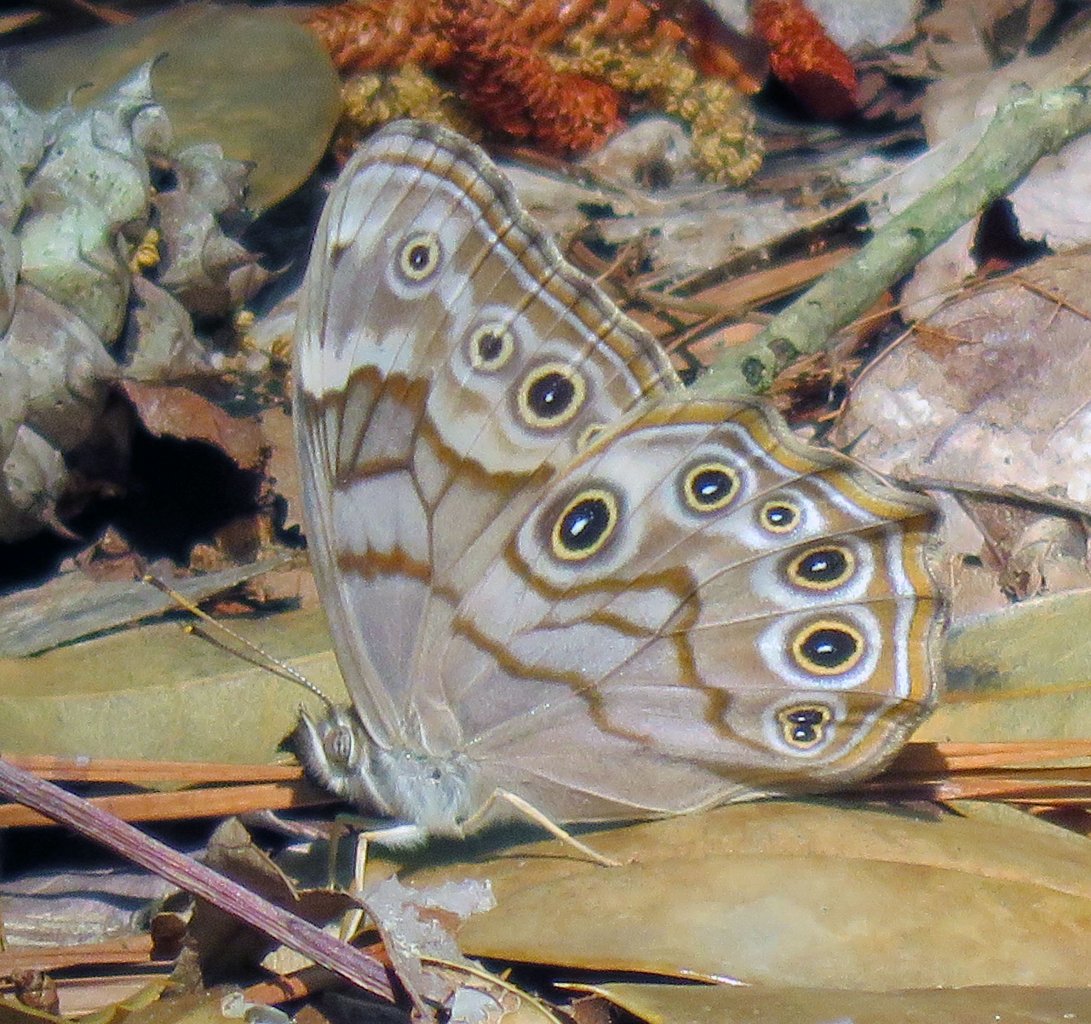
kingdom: Animalia
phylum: Arthropoda
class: Insecta
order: Lepidoptera
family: Nymphalidae
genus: Lethe
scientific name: Lethe creola
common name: Creole Pearly-Eye
